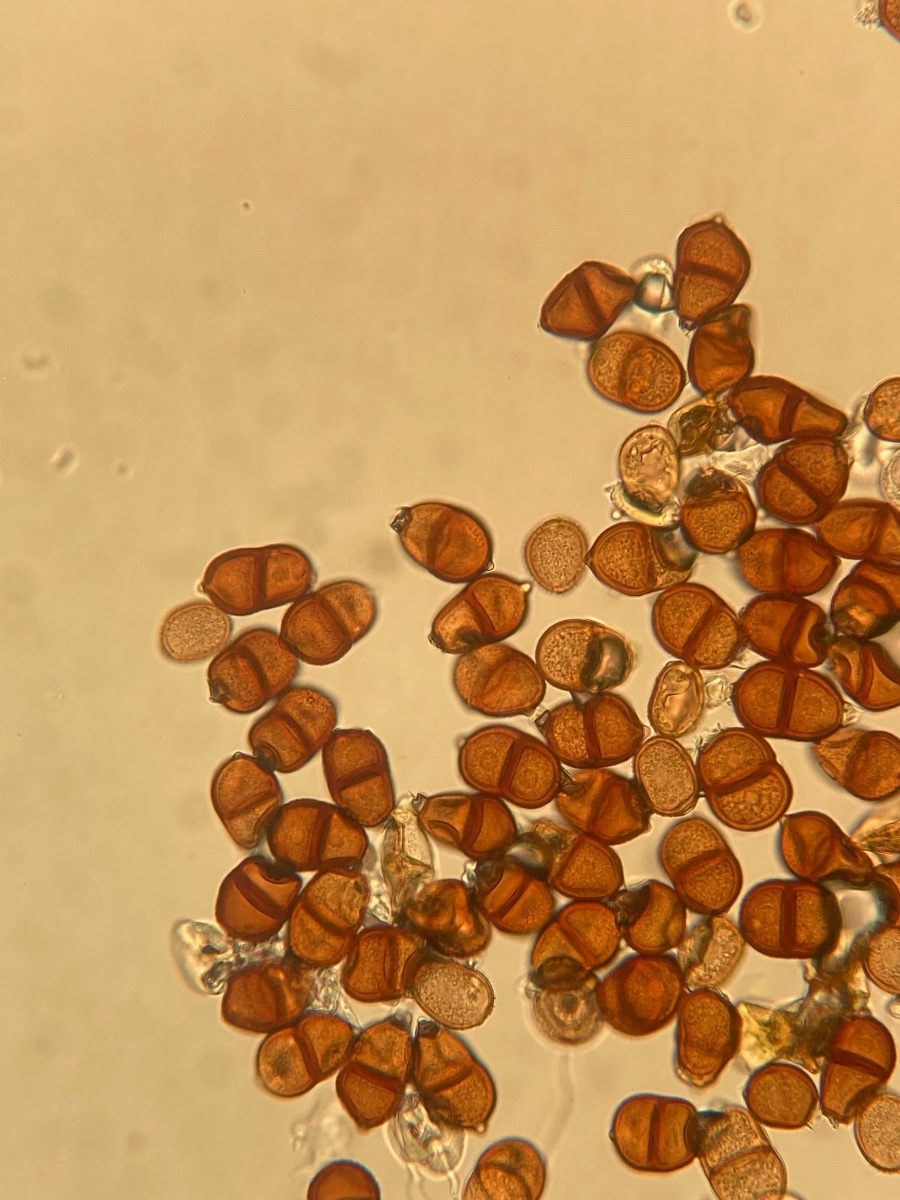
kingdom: Fungi
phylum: Basidiomycota
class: Pucciniomycetes
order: Pucciniales
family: Pucciniaceae
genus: Puccinia
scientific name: Puccinia komarovii
